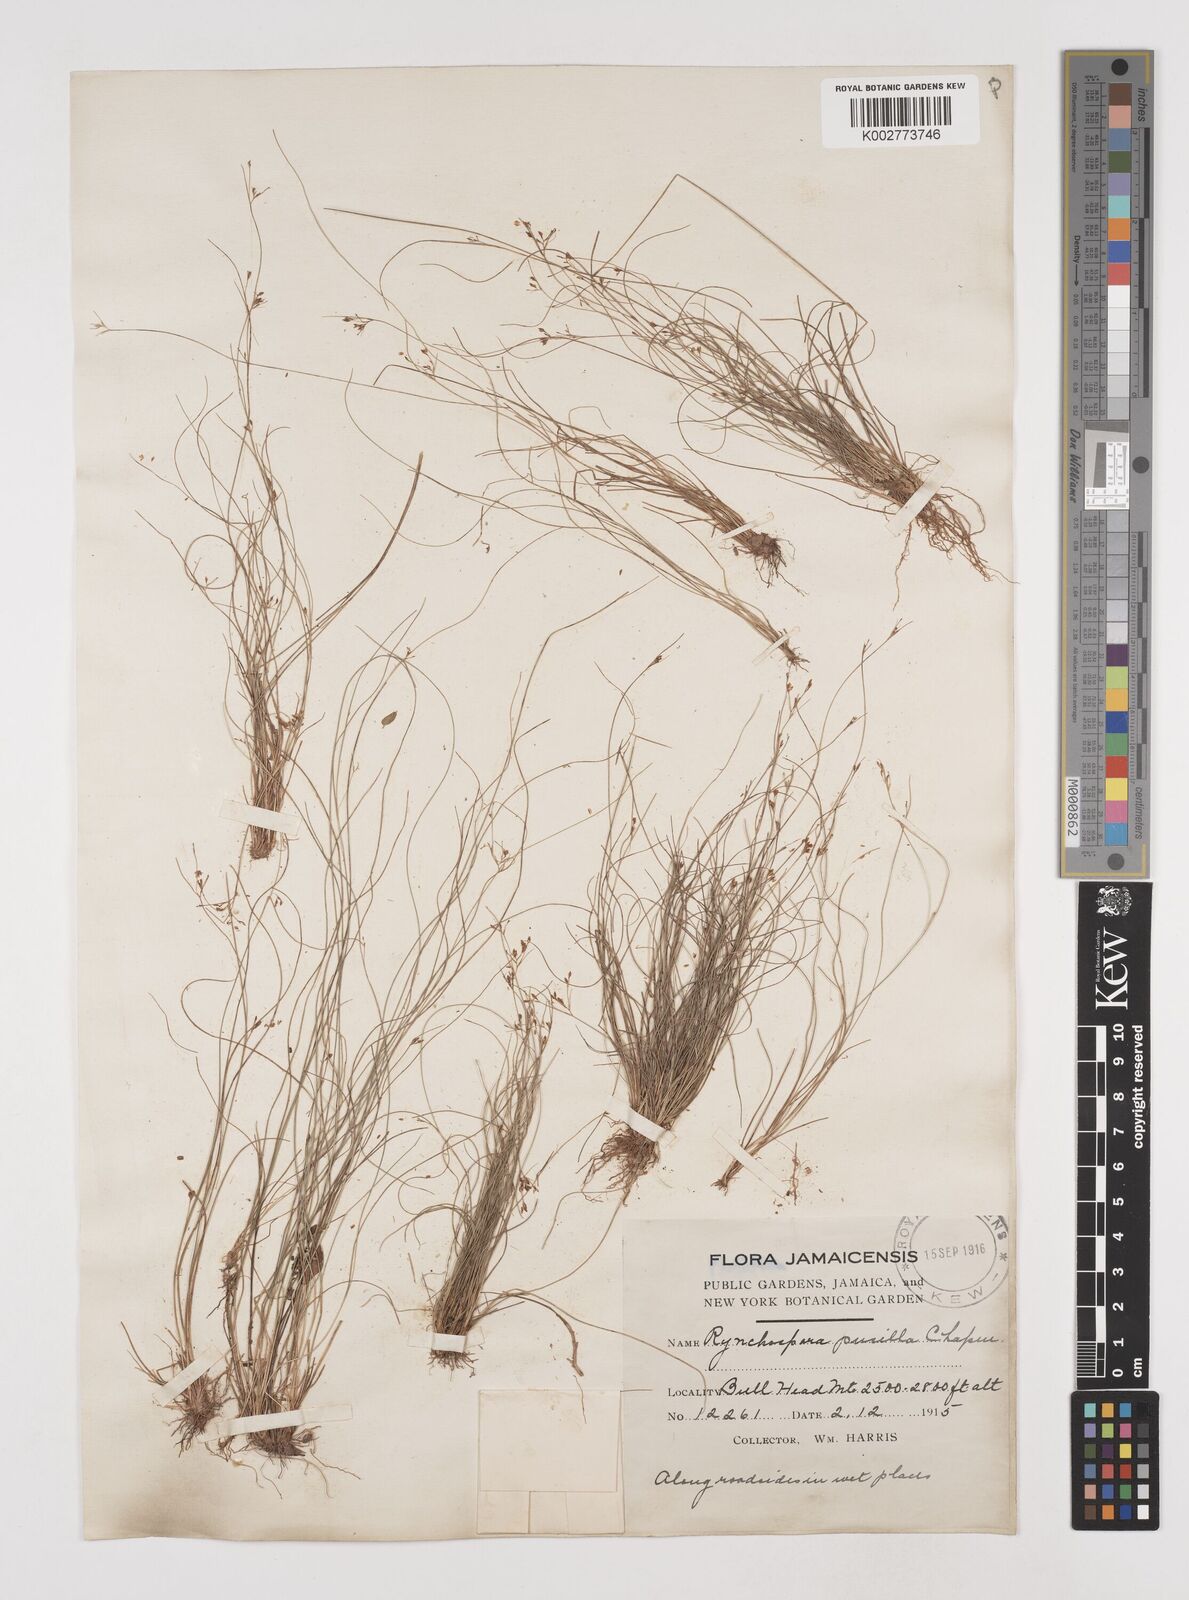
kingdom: Plantae
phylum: Tracheophyta
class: Liliopsida
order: Poales
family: Cyperaceae
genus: Rhynchospora
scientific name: Rhynchospora intermixta
